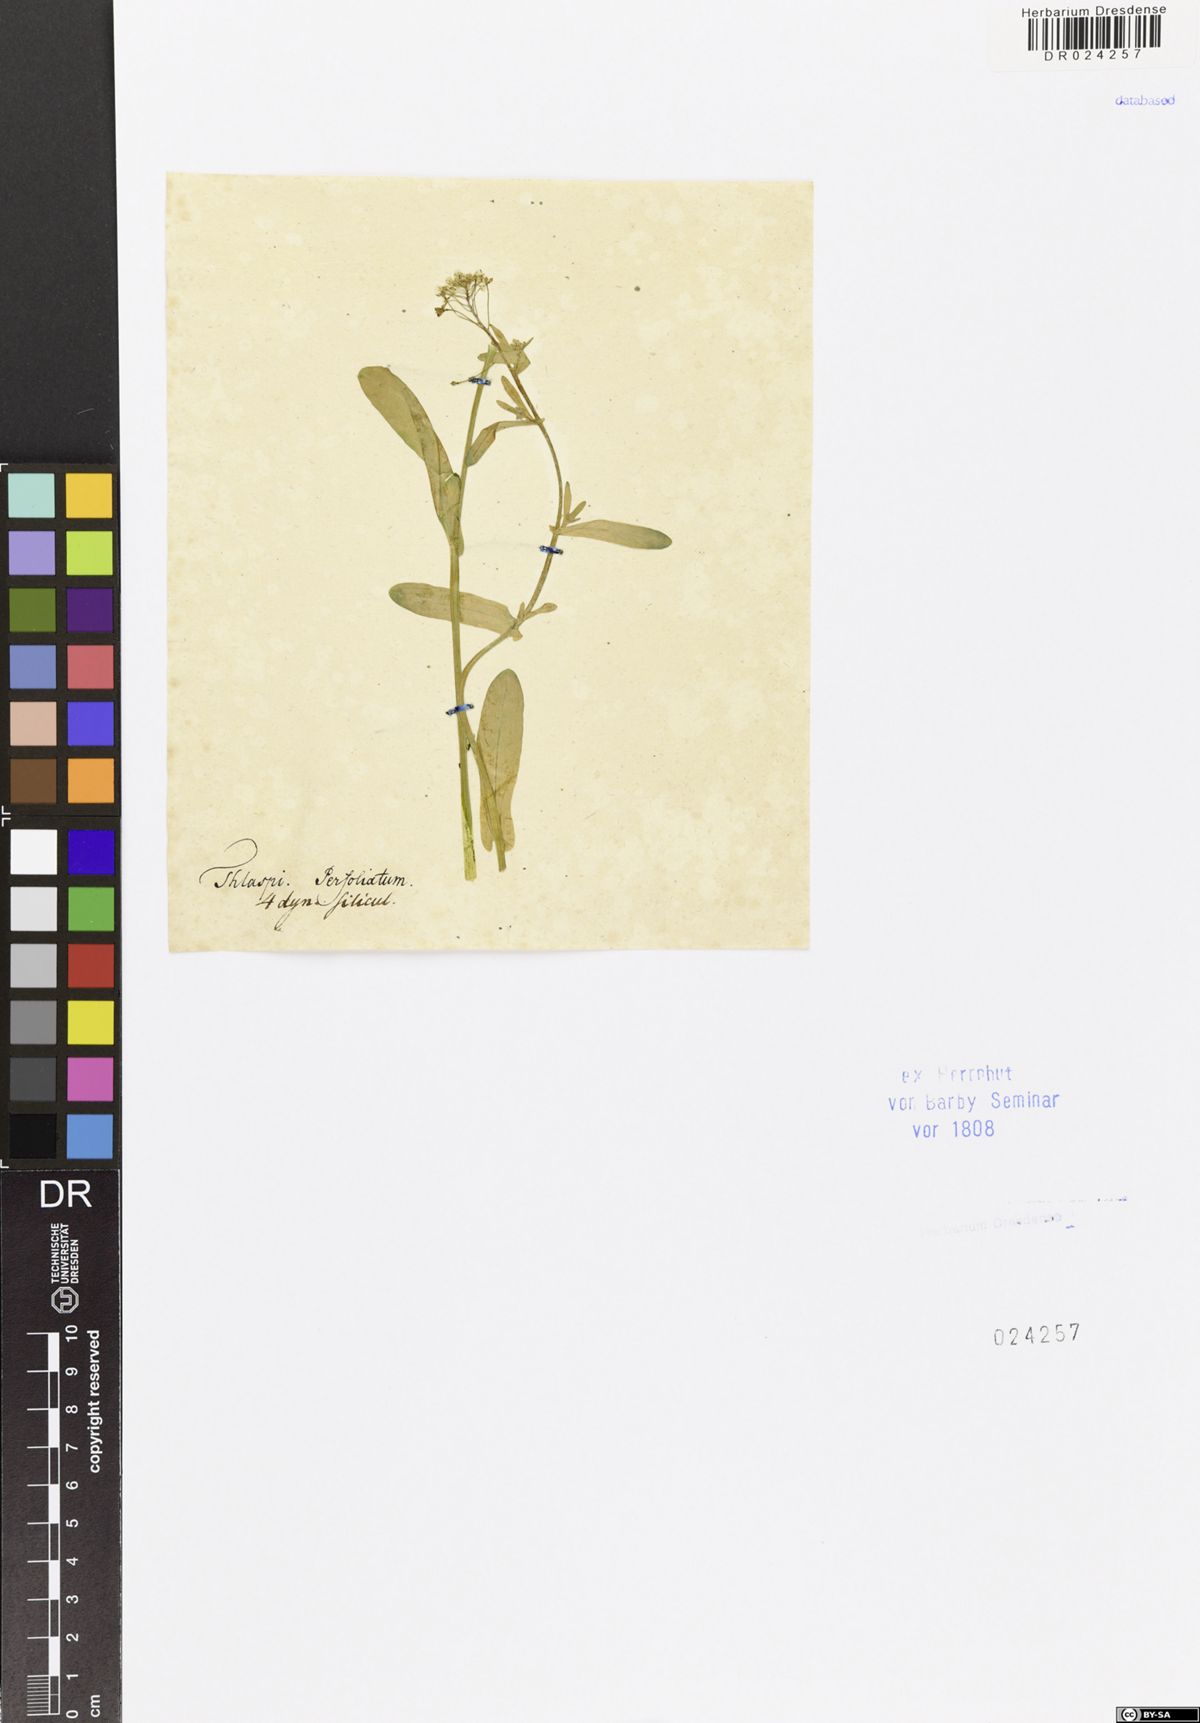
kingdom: Plantae
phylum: Tracheophyta
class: Magnoliopsida
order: Brassicales
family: Brassicaceae
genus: Capsella
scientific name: Capsella bursa-pastoris
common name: Shepherd's purse
